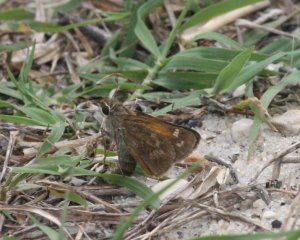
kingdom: Animalia
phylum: Arthropoda
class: Insecta
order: Lepidoptera
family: Hesperiidae
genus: Atalopedes
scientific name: Atalopedes campestris
